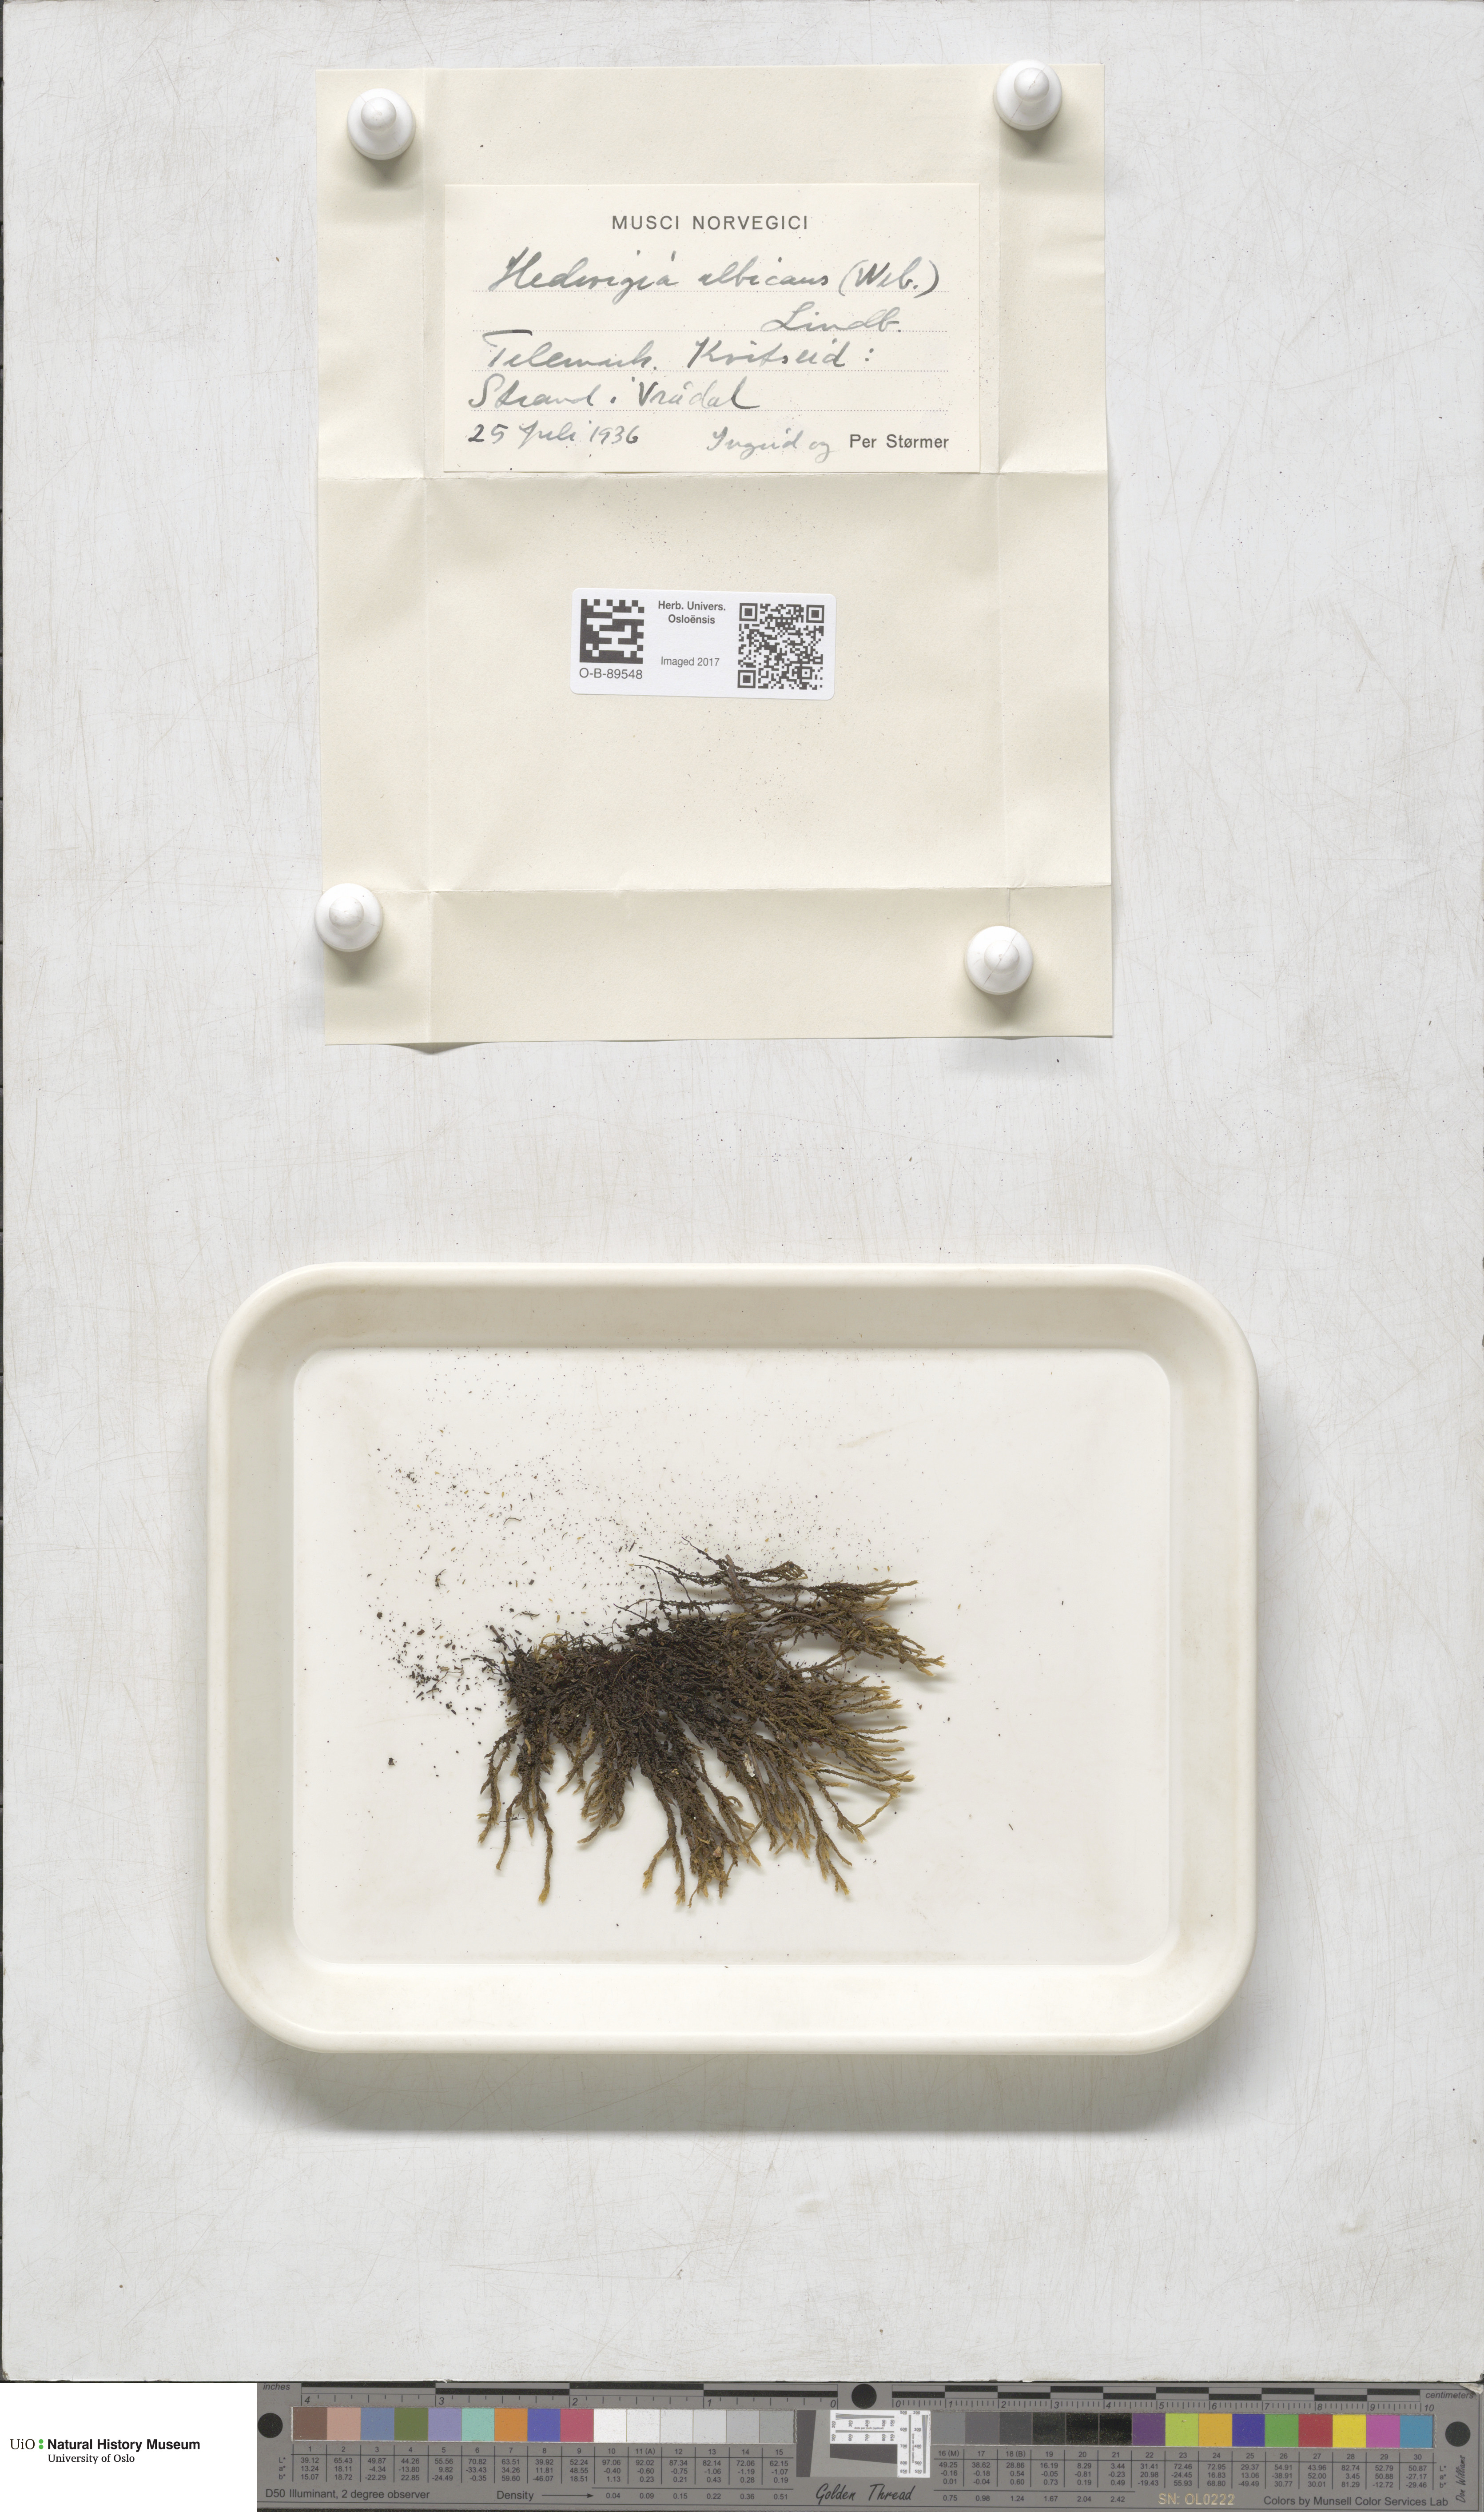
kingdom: Plantae
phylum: Bryophyta
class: Bryopsida
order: Hedwigiales
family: Hedwigiaceae
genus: Hedwigia
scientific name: Hedwigia ciliata
